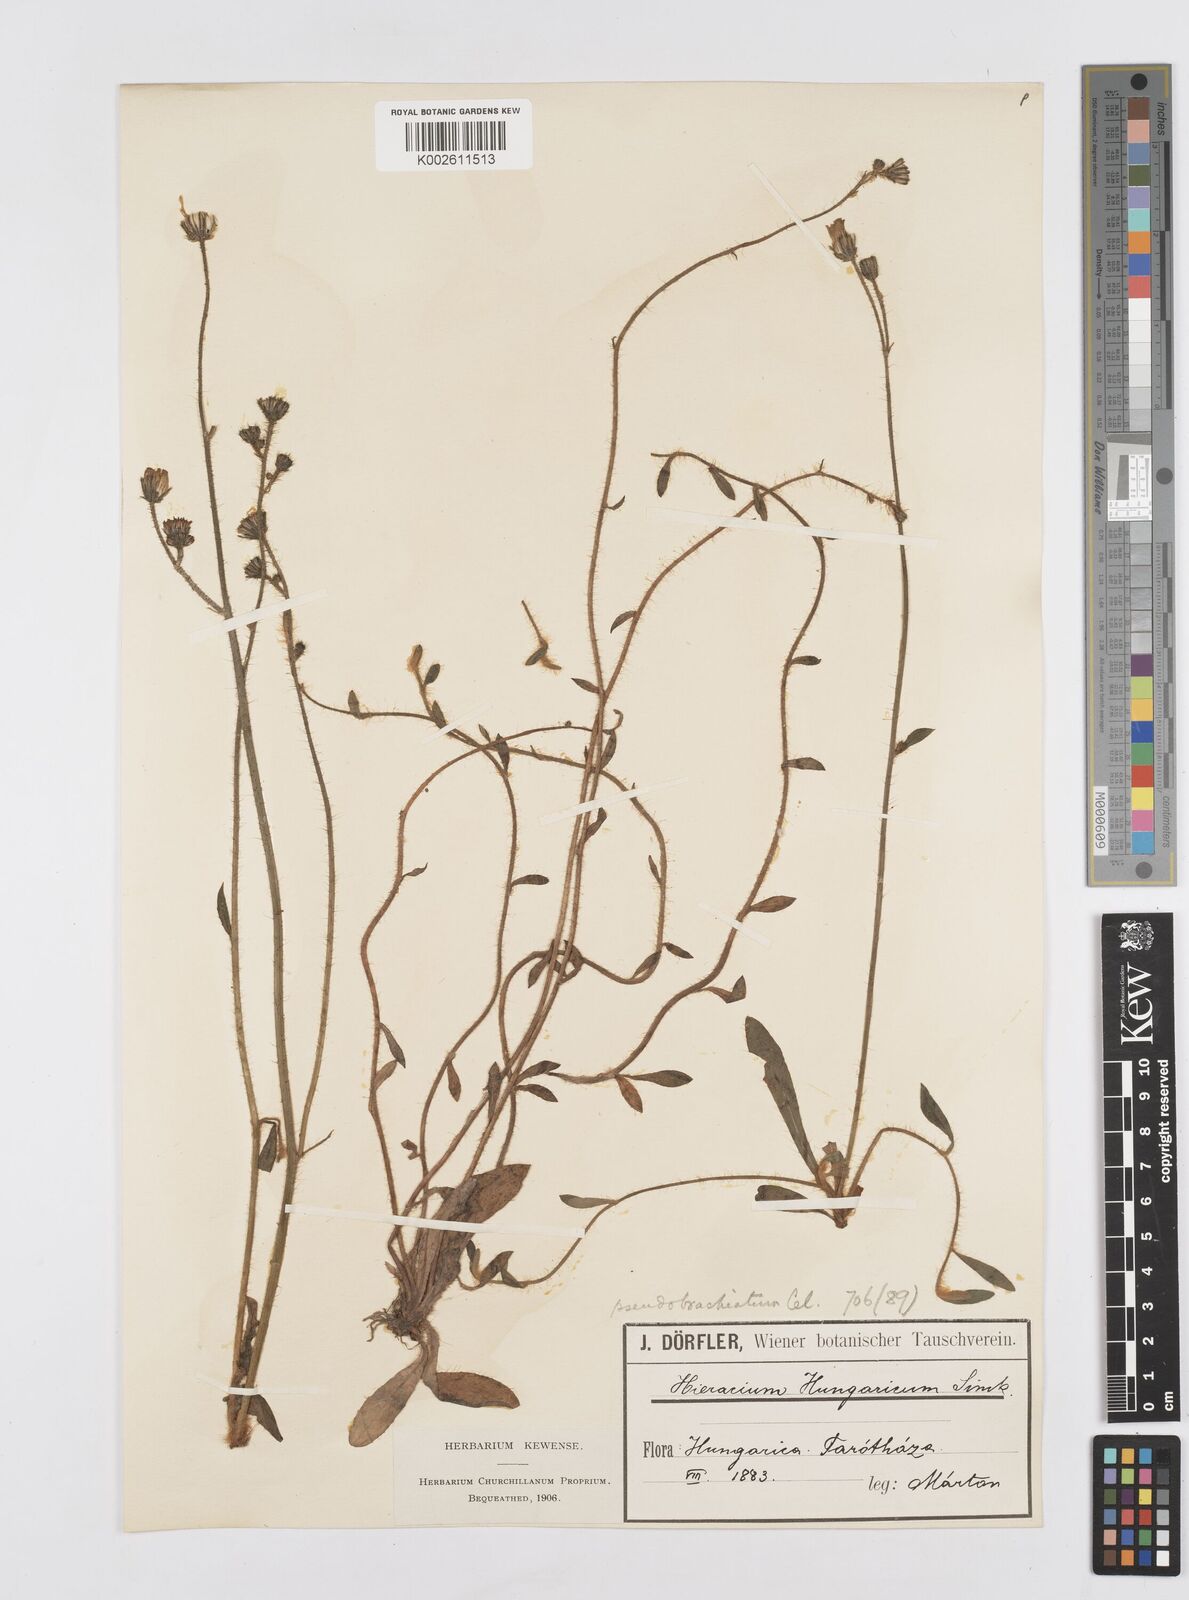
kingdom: Plantae
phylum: Tracheophyta
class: Magnoliopsida
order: Asterales
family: Asteraceae
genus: Pilosella
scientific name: Pilosella acutifolia
